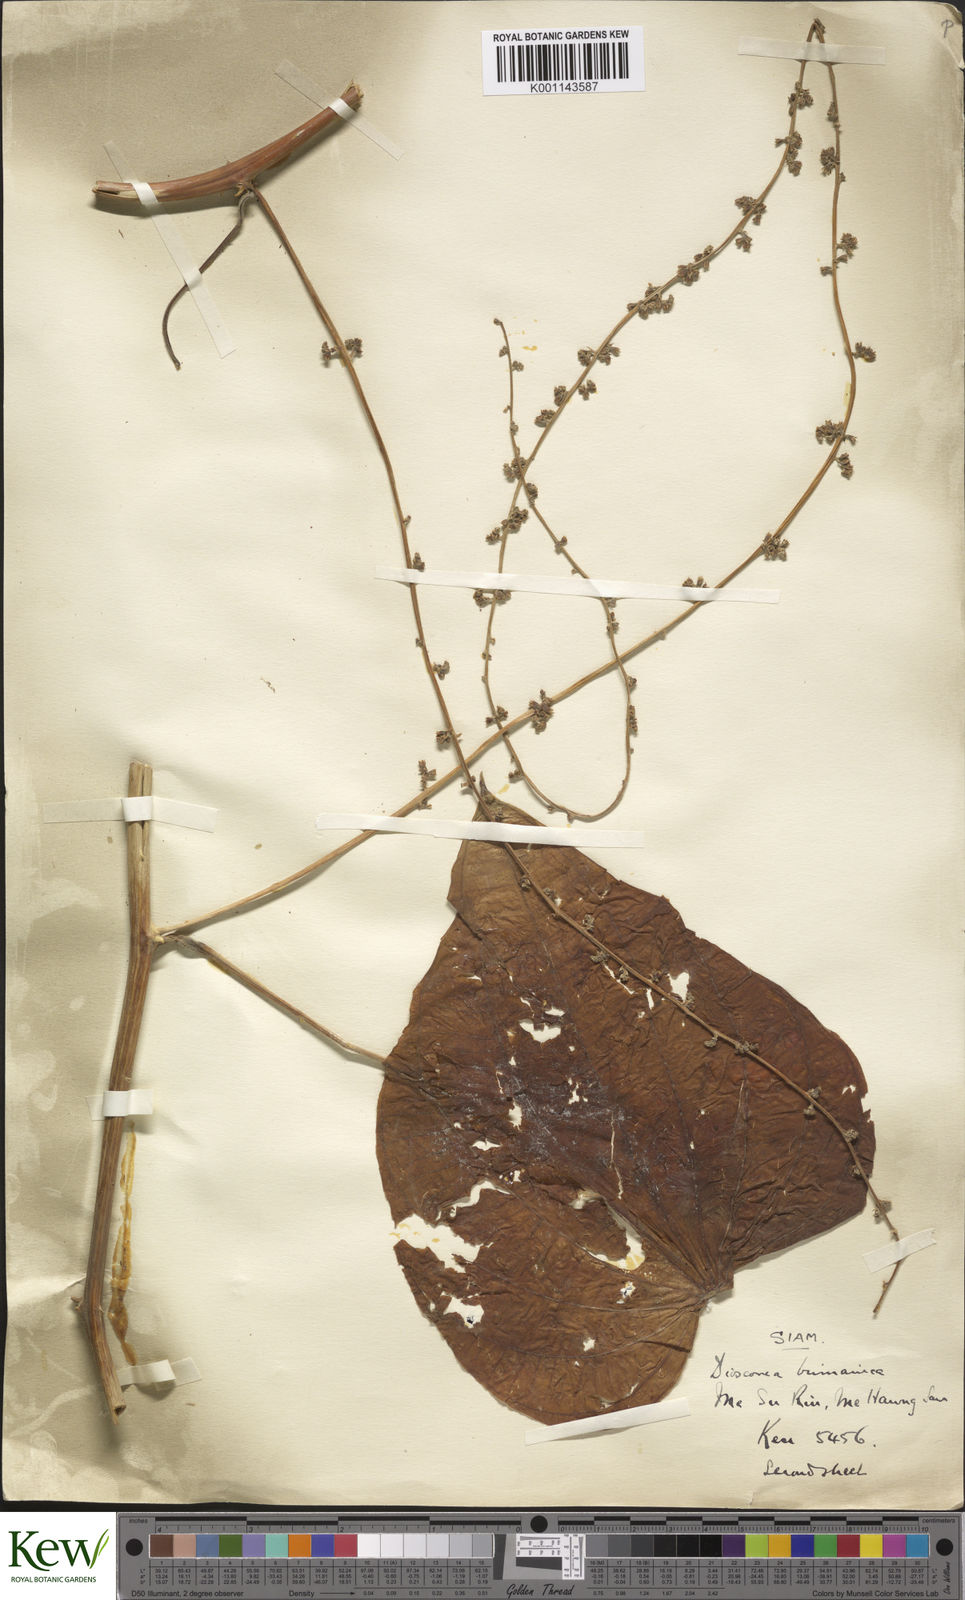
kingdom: Plantae
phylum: Tracheophyta
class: Liliopsida
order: Dioscoreales
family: Dioscoreaceae
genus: Dioscorea
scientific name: Dioscorea birmanica
